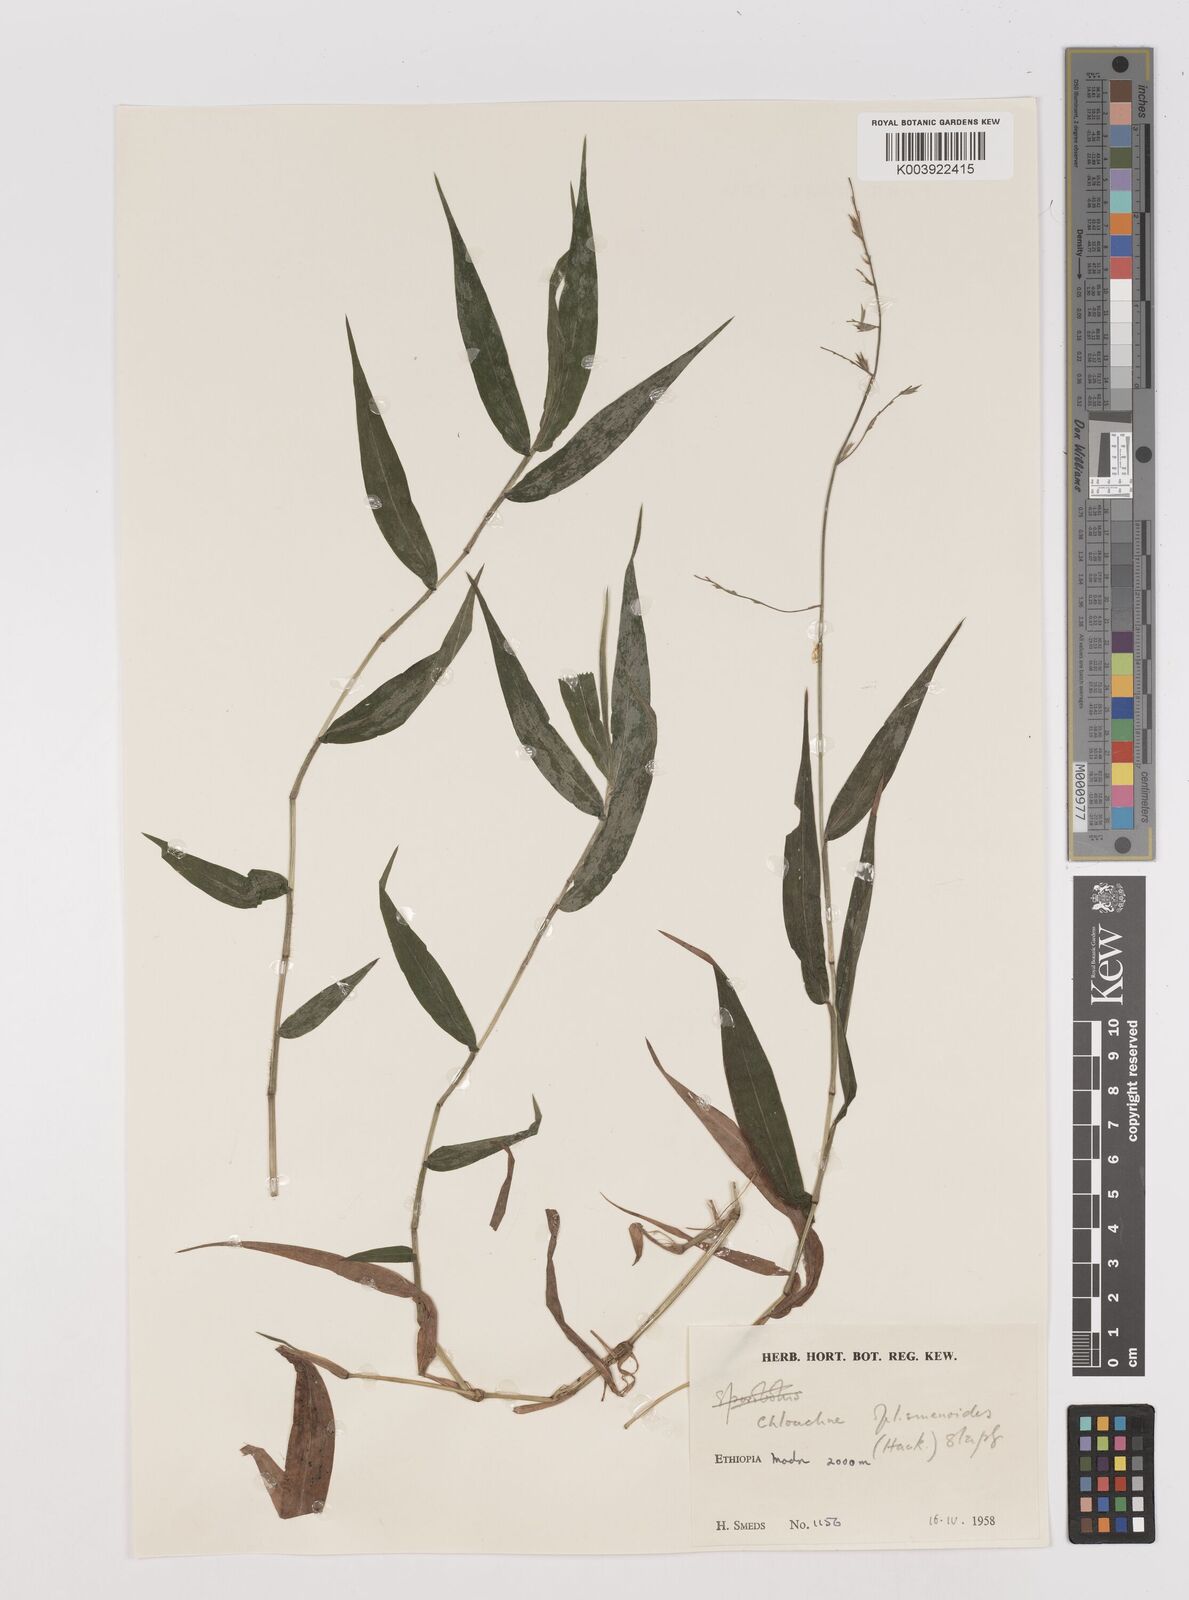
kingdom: Plantae
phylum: Tracheophyta
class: Liliopsida
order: Poales
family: Poaceae
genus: Poecilostachys
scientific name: Poecilostachys oplismenoides
